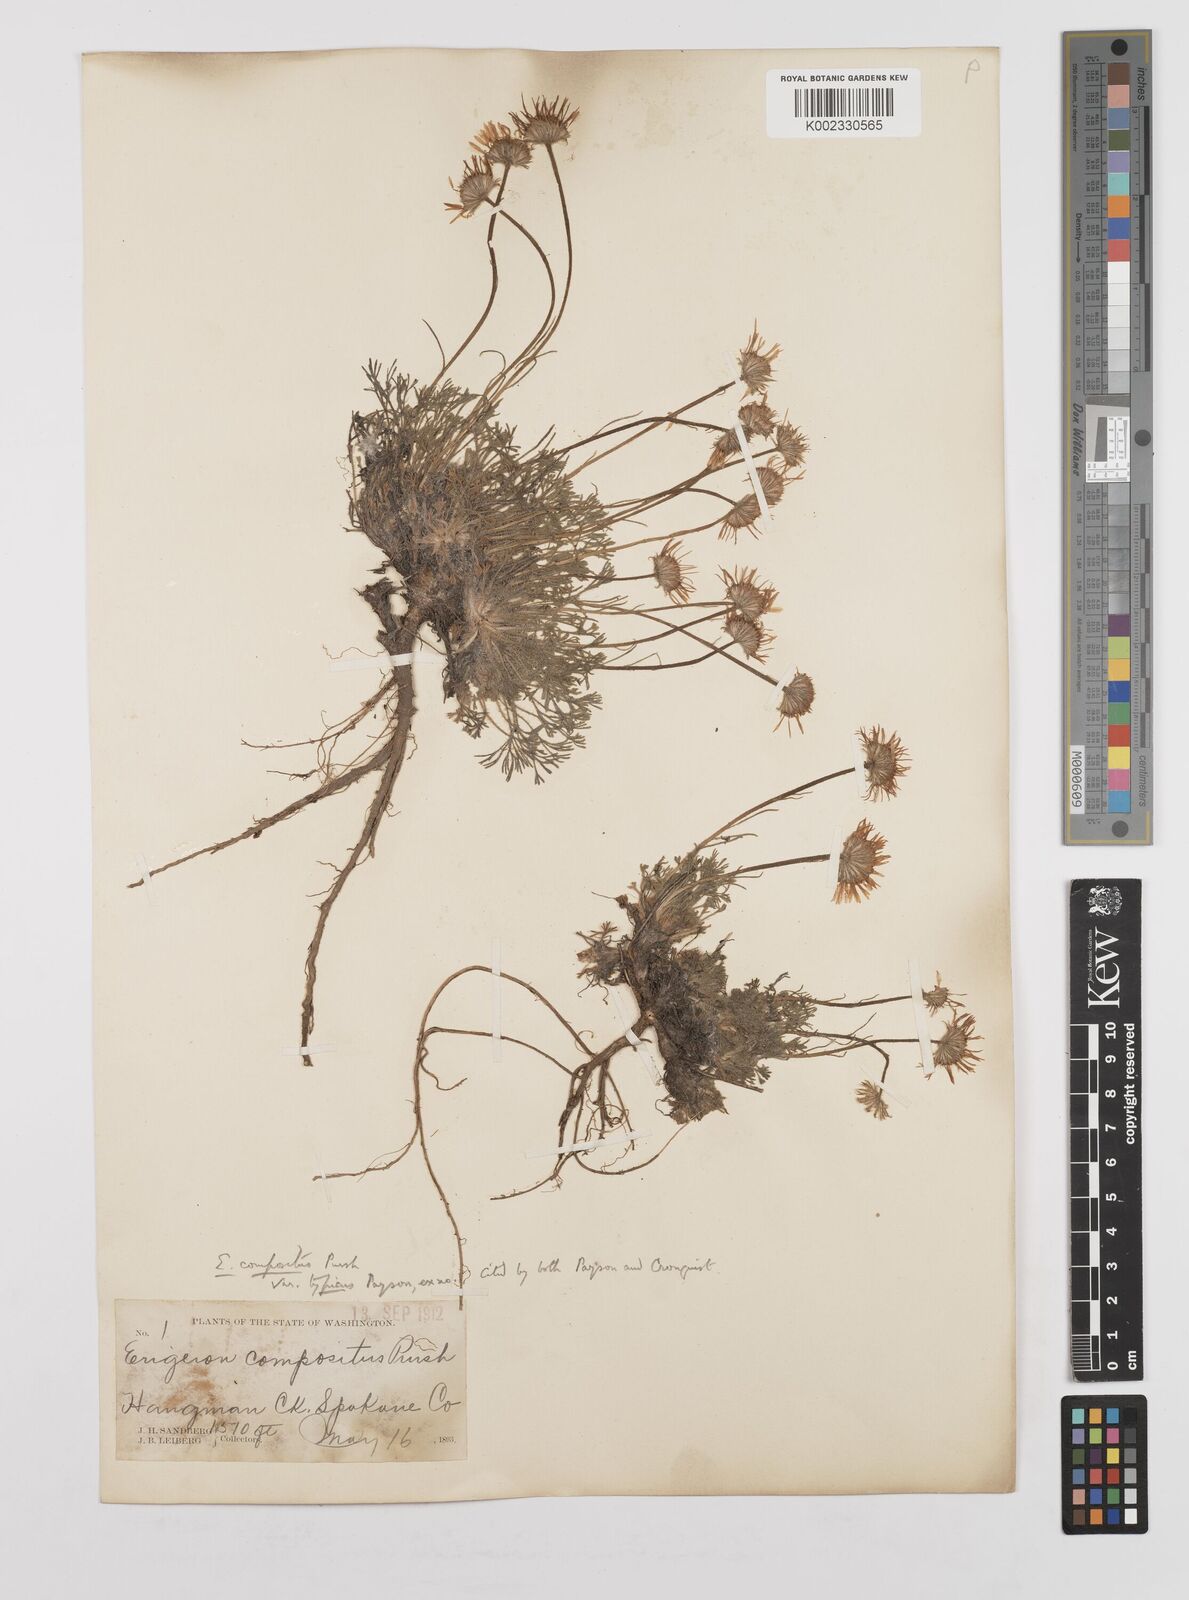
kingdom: Plantae
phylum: Tracheophyta
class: Magnoliopsida
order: Asterales
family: Asteraceae
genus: Erigeron
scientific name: Erigeron compositus
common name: Dwarf mountain fleabane
